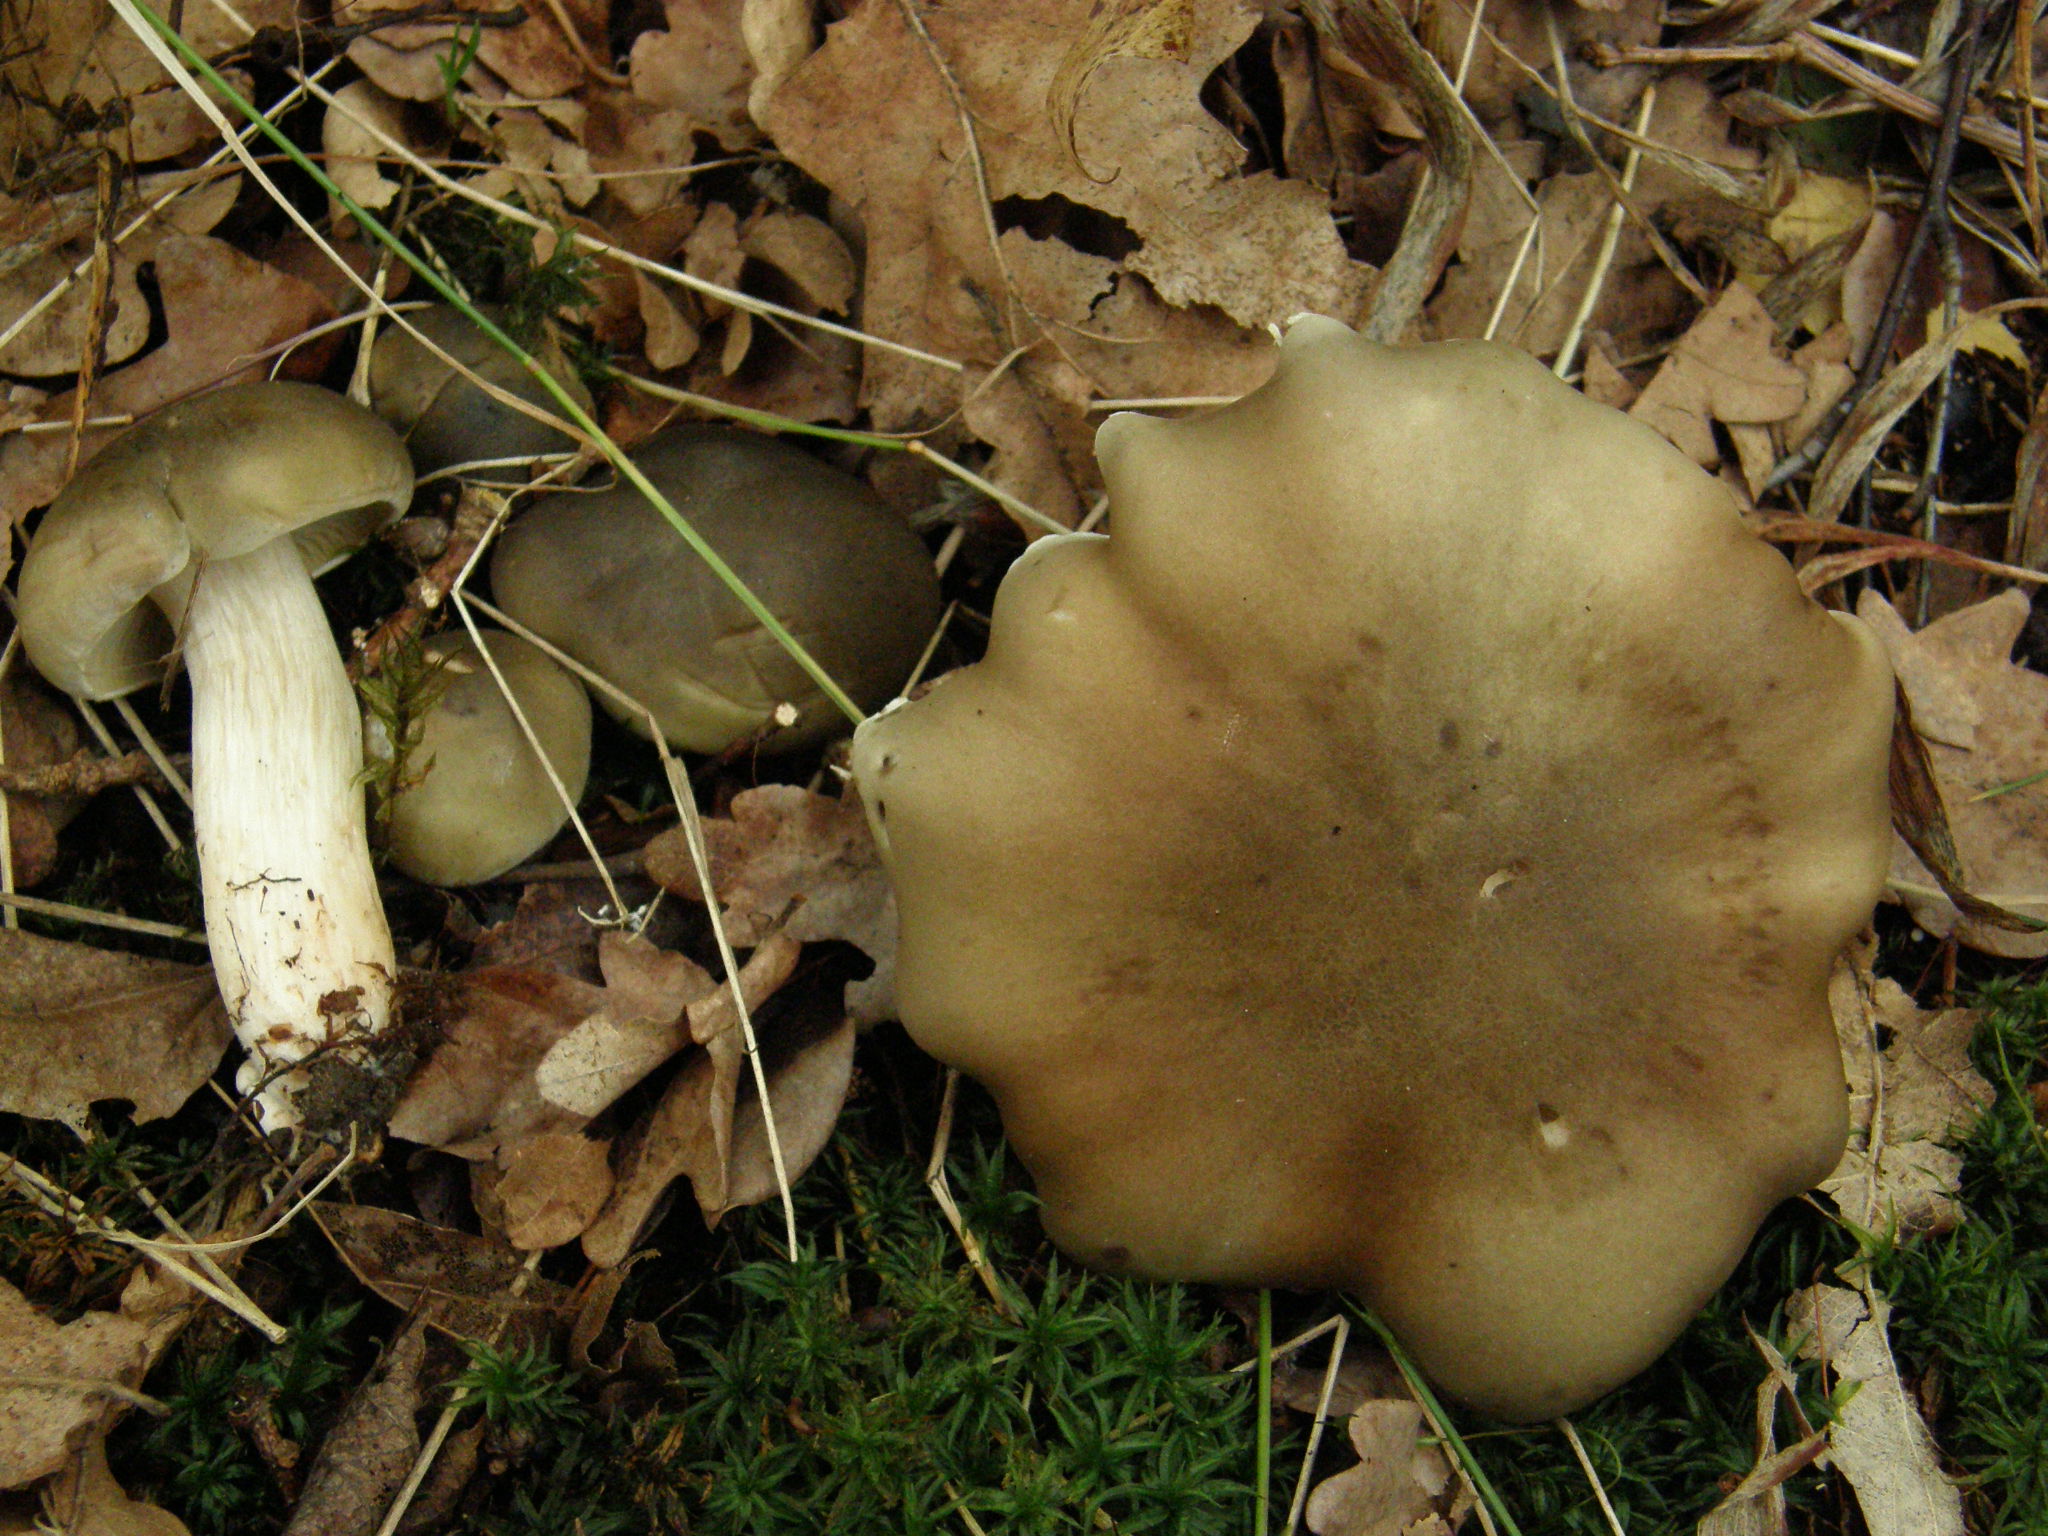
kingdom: Fungi
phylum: Basidiomycota
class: Agaricomycetes
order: Agaricales
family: Tricholomataceae
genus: Tricholoma
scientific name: Tricholoma saponaceum
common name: Soapy trich
